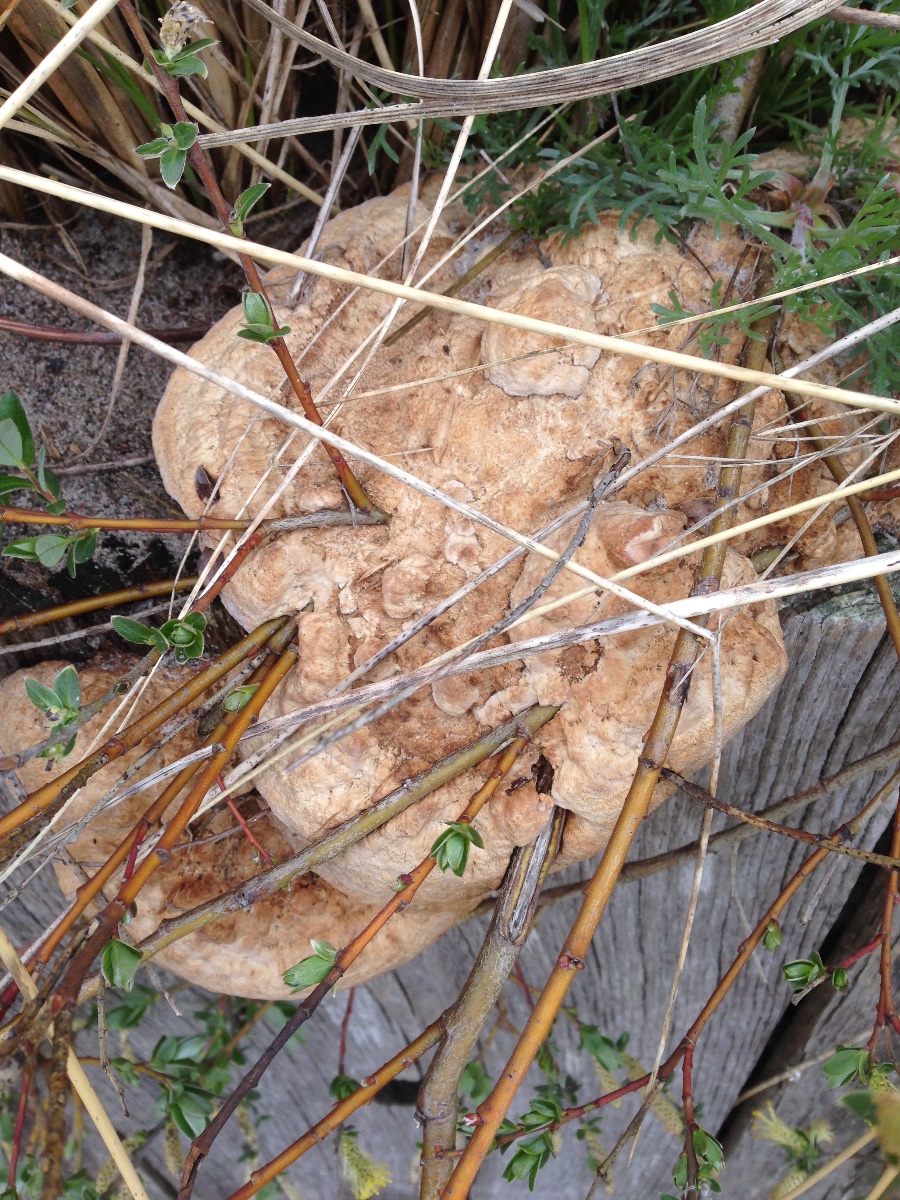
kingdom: Fungi
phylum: Basidiomycota
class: Agaricomycetes
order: Polyporales
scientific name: Polyporales
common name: poresvampordenen
